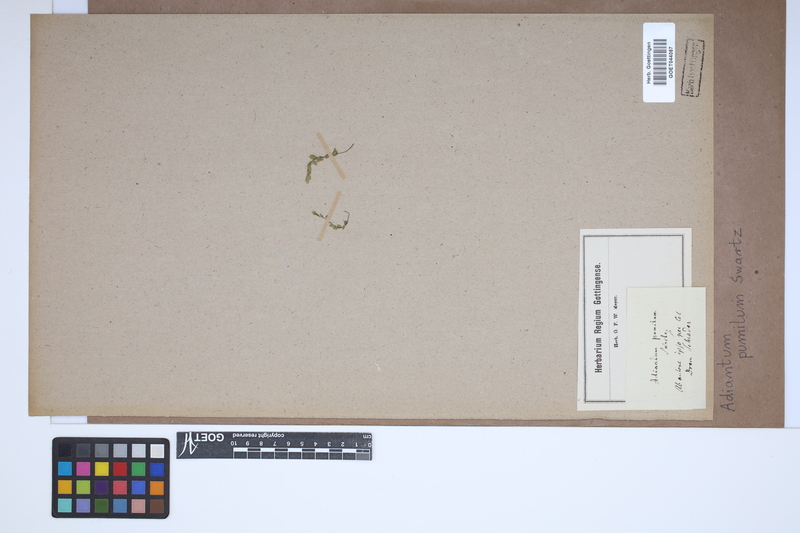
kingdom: Plantae
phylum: Tracheophyta
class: Polypodiopsida
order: Polypodiales
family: Pteridaceae
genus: Adiantum
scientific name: Adiantum pumilum
